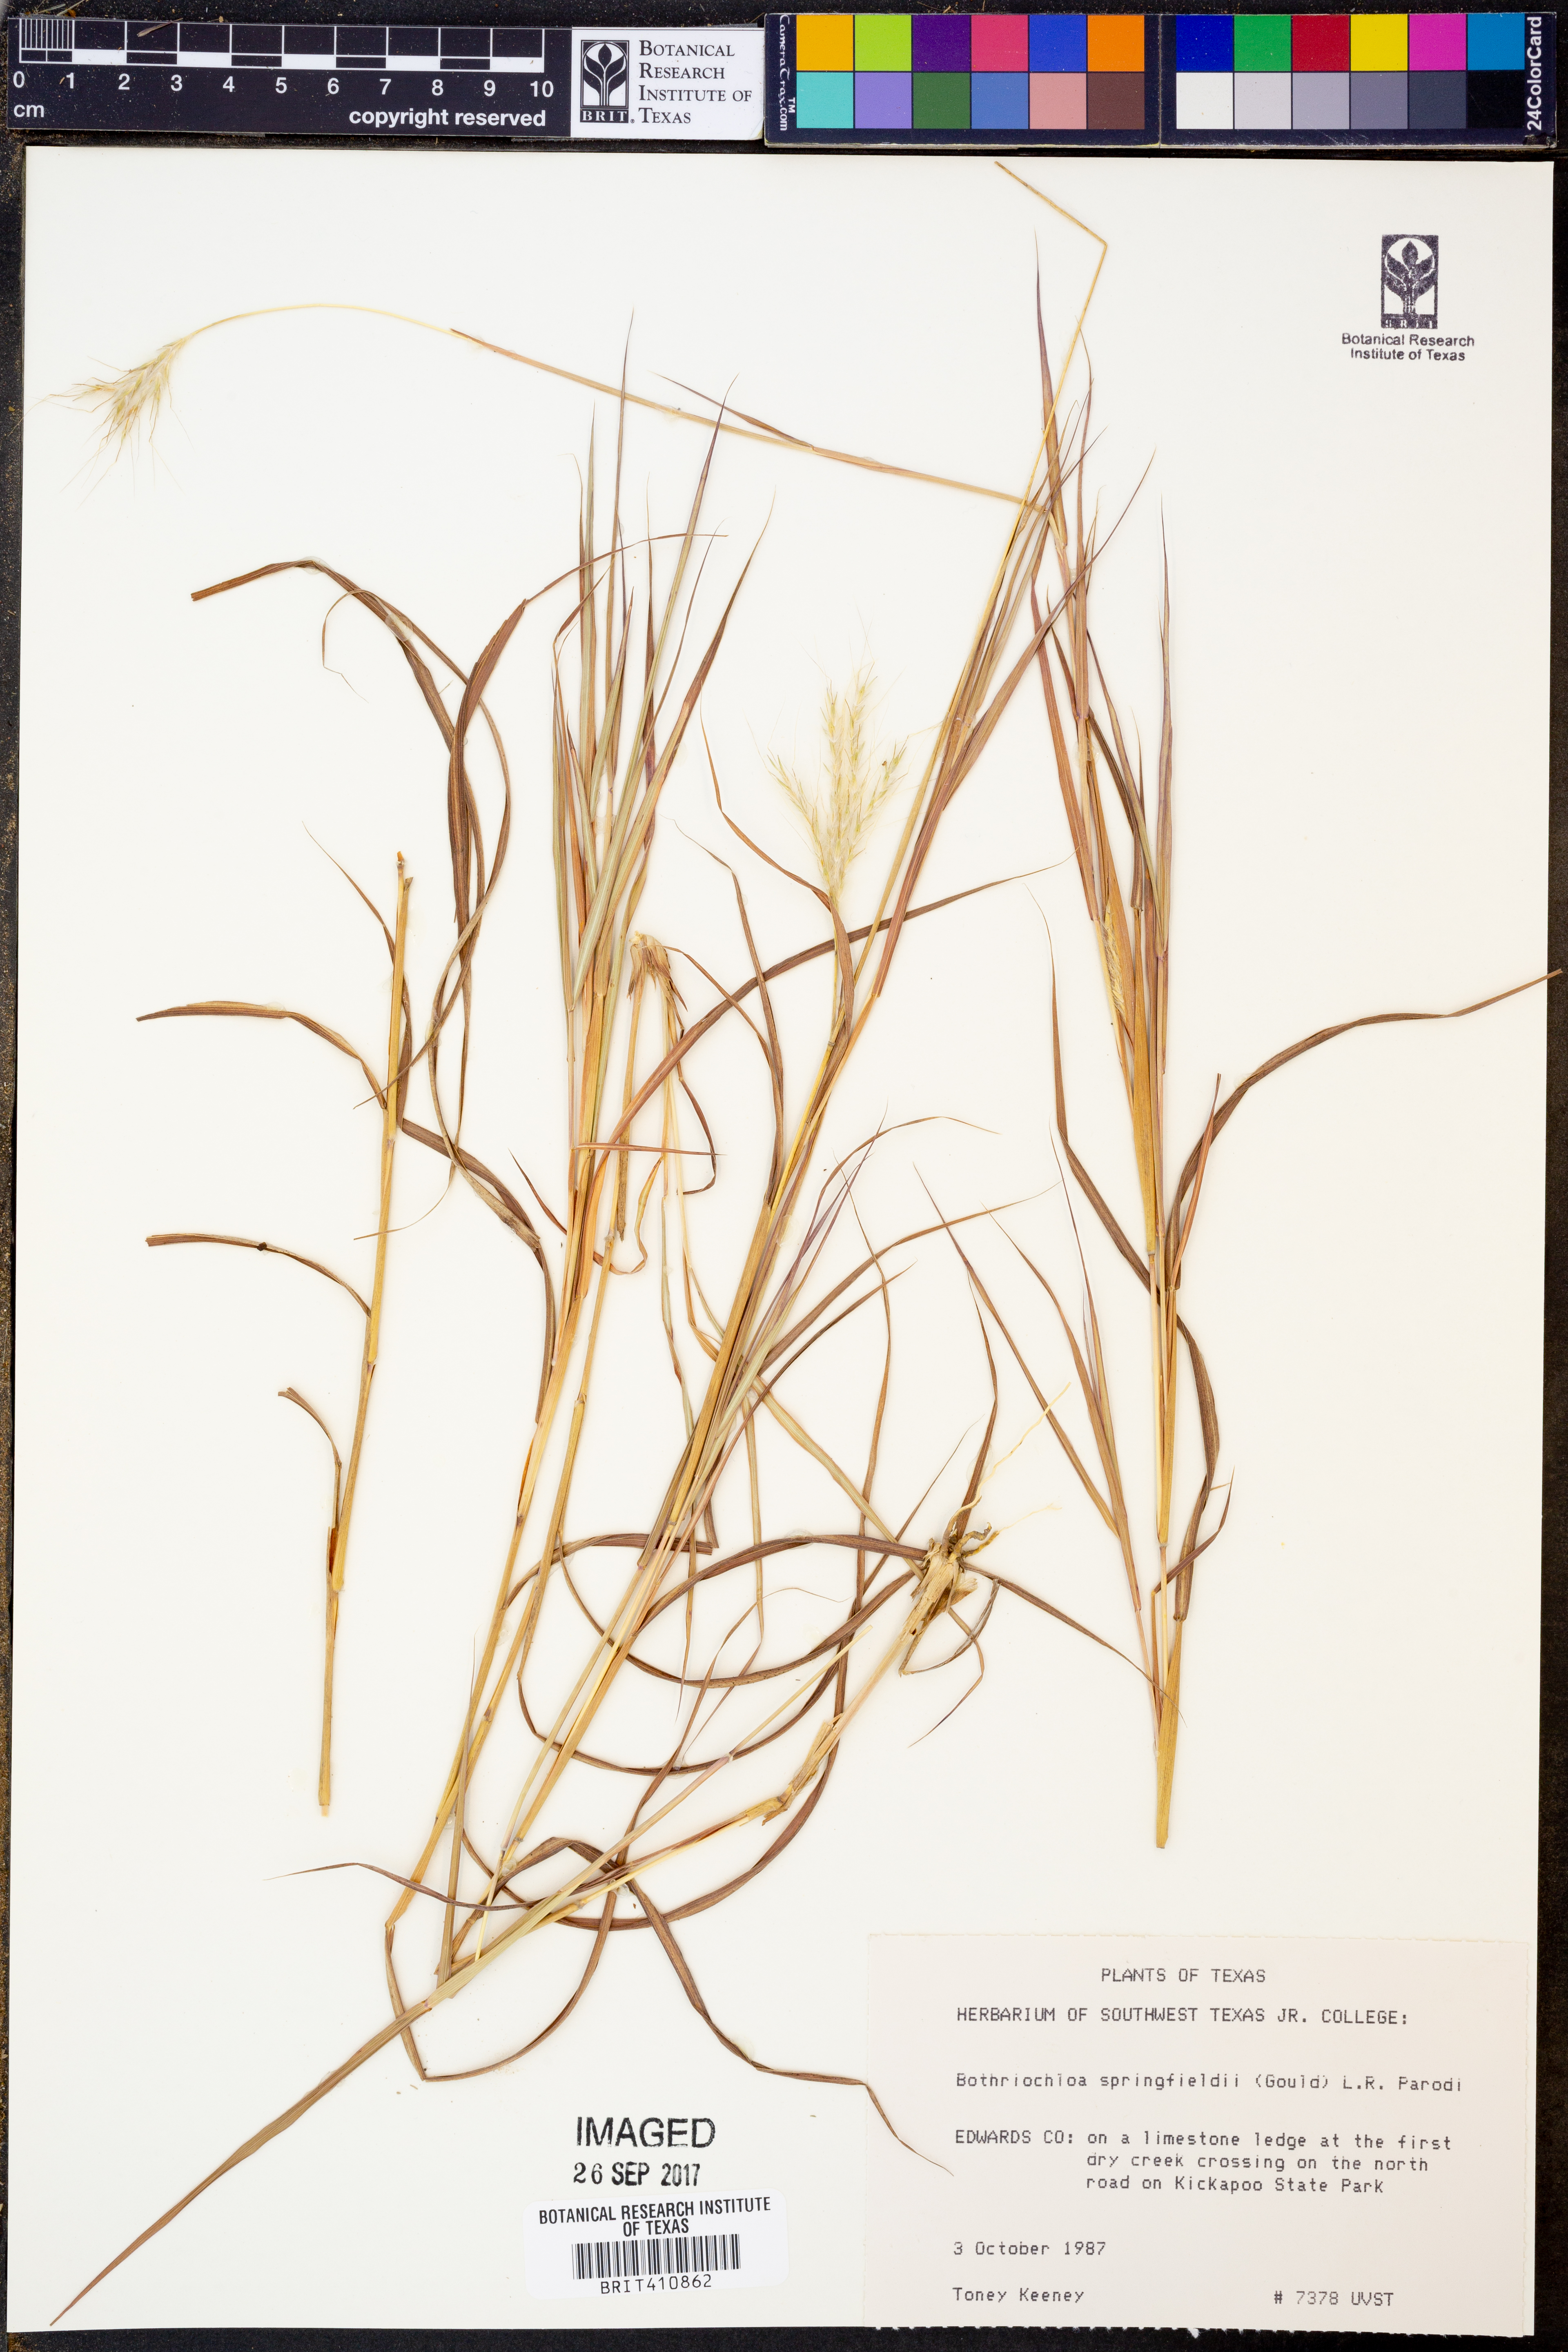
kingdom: Plantae
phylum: Tracheophyta
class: Liliopsida
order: Poales
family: Poaceae
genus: Bothriochloa
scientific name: Bothriochloa springfieldii
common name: Springfield bluestem
